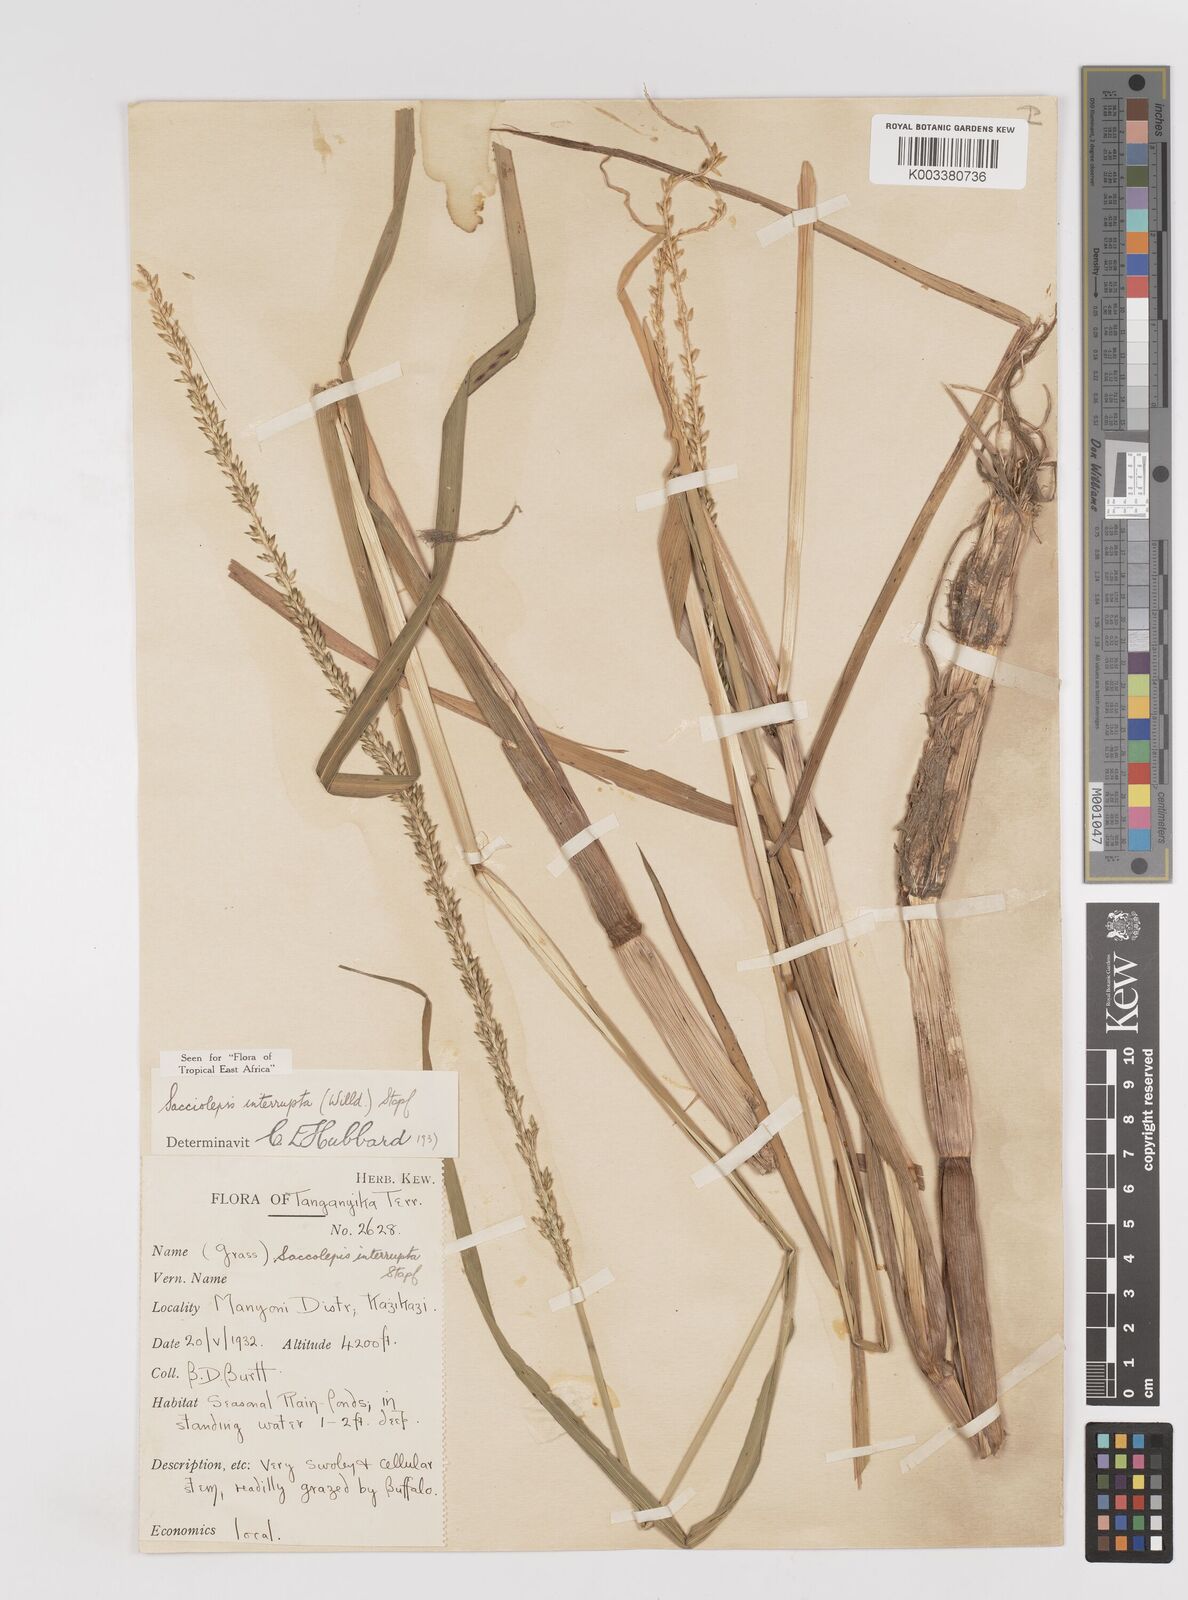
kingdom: Plantae
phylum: Tracheophyta
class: Liliopsida
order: Poales
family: Poaceae
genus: Sacciolepis
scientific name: Sacciolepis interrupta
